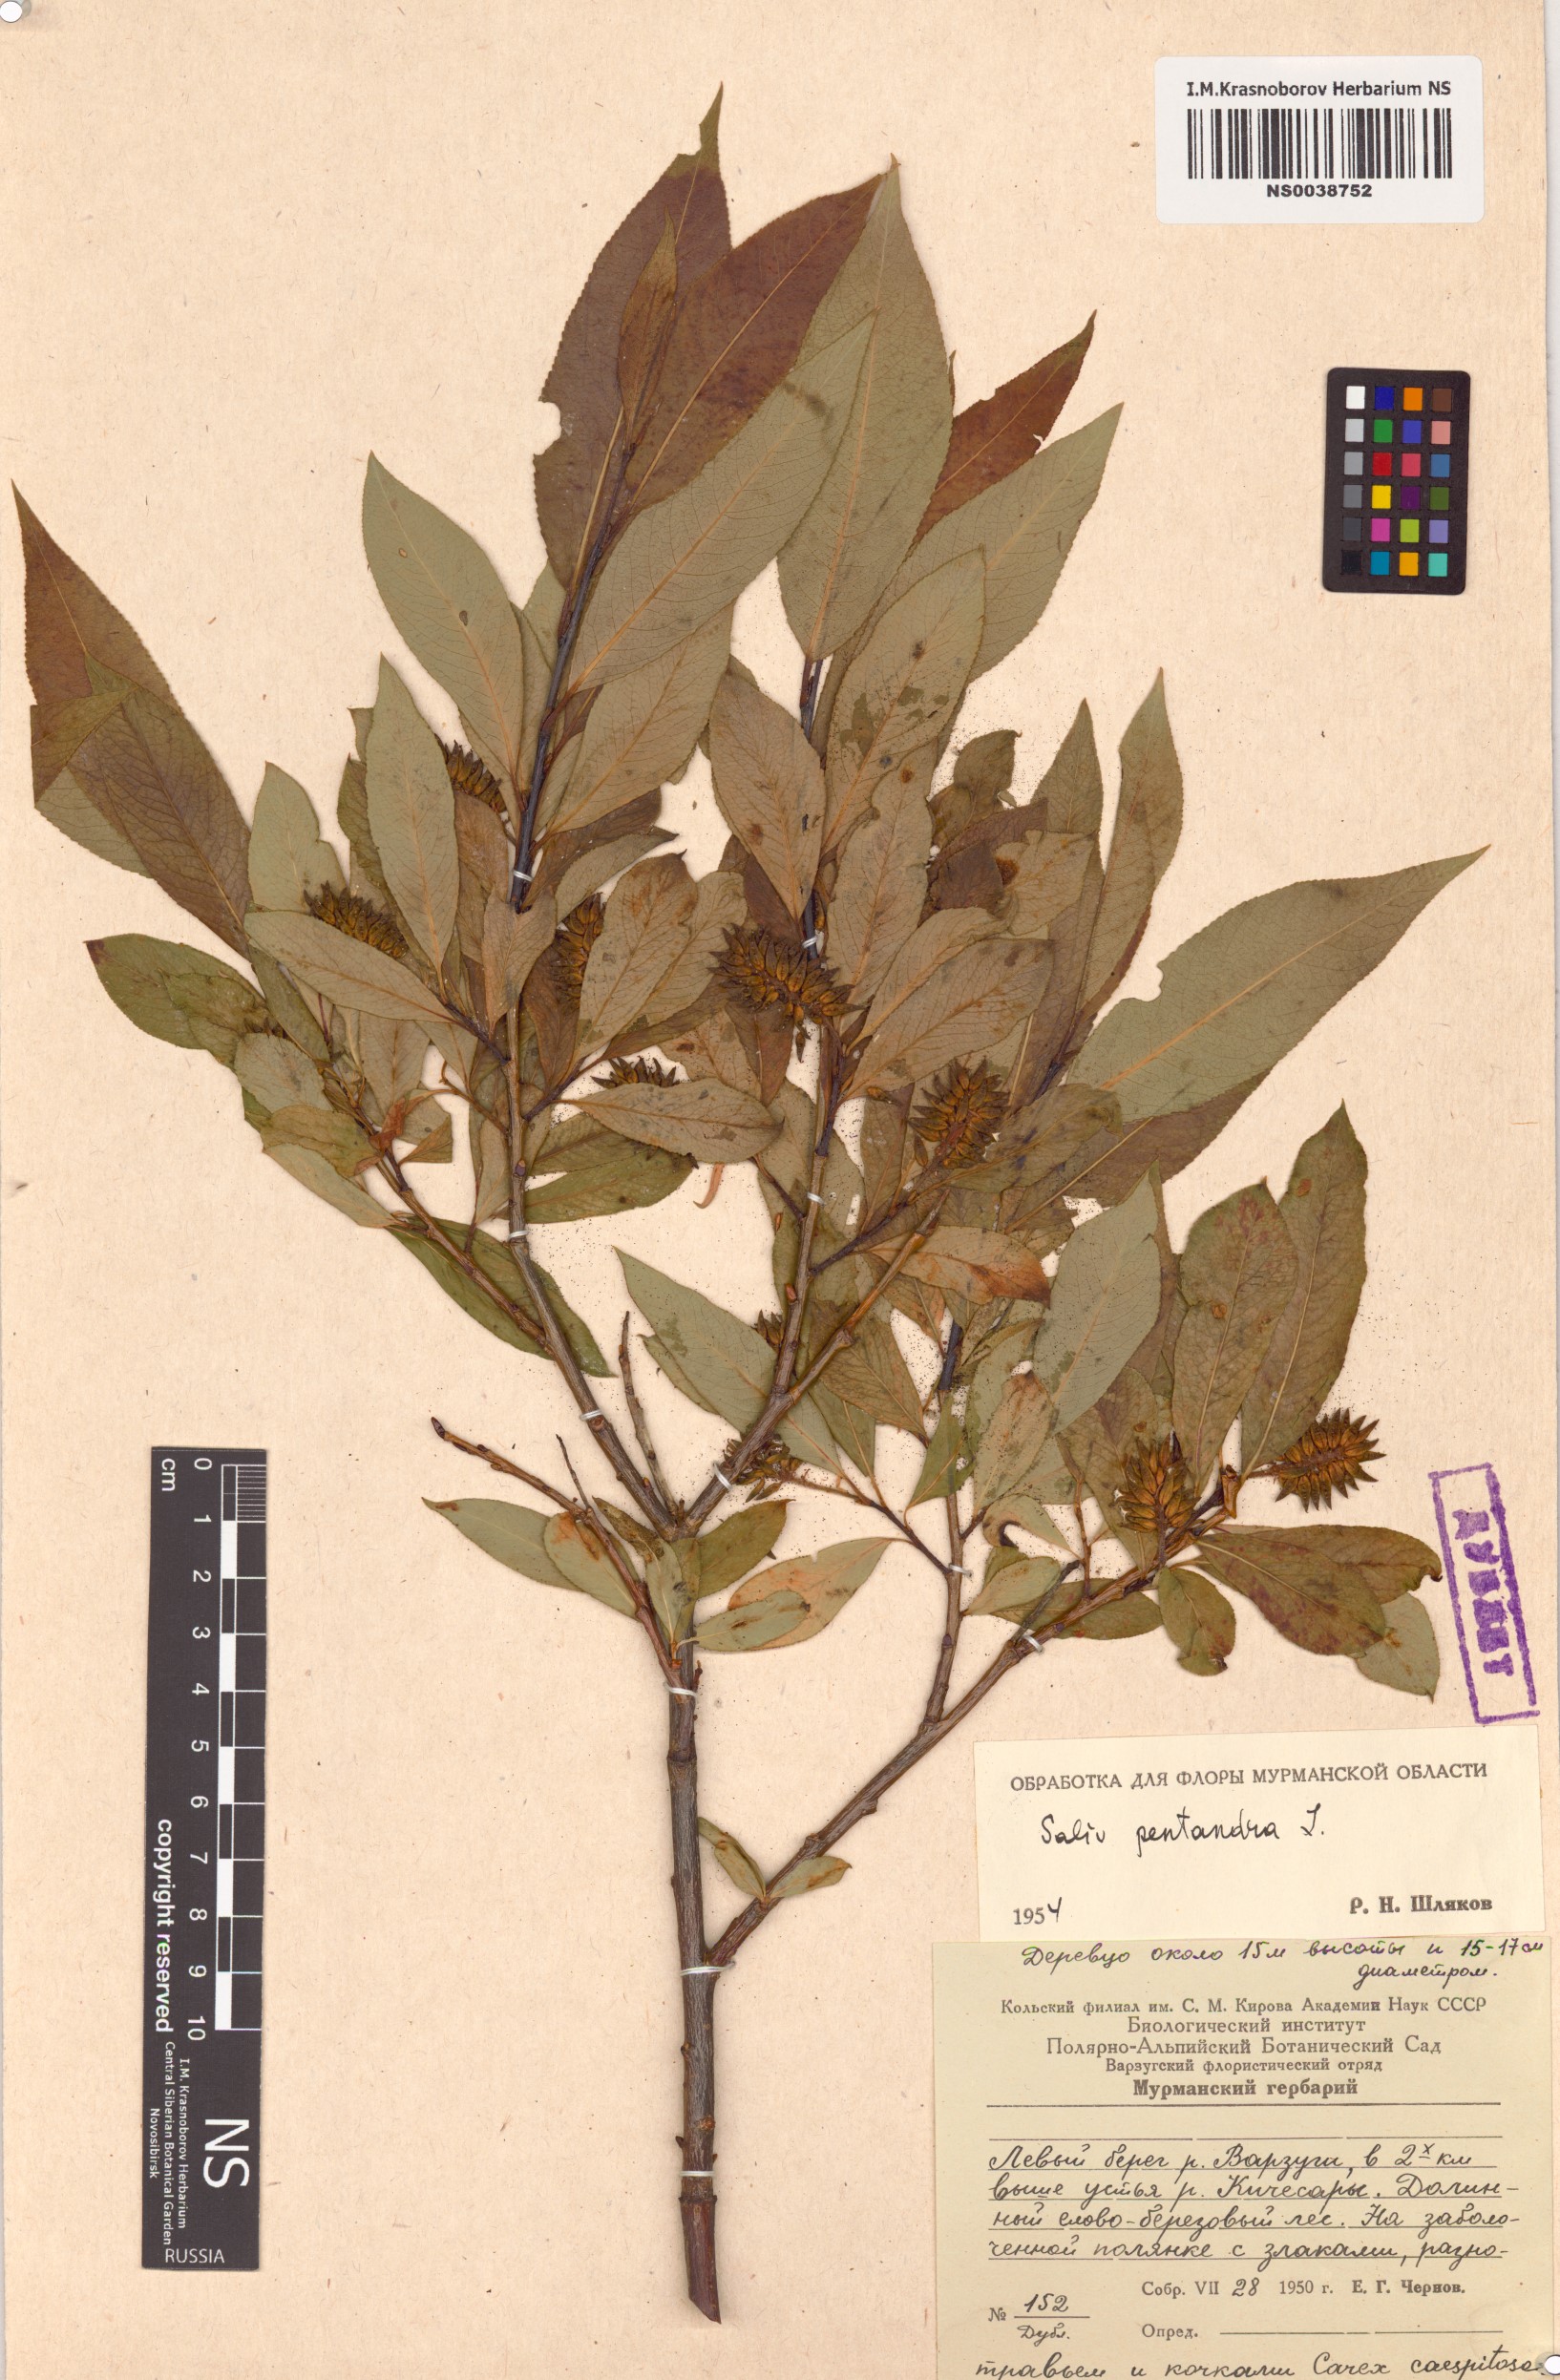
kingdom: Plantae
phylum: Tracheophyta
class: Magnoliopsida
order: Malpighiales
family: Salicaceae
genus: Salix
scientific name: Salix pentandra
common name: Bay willow
